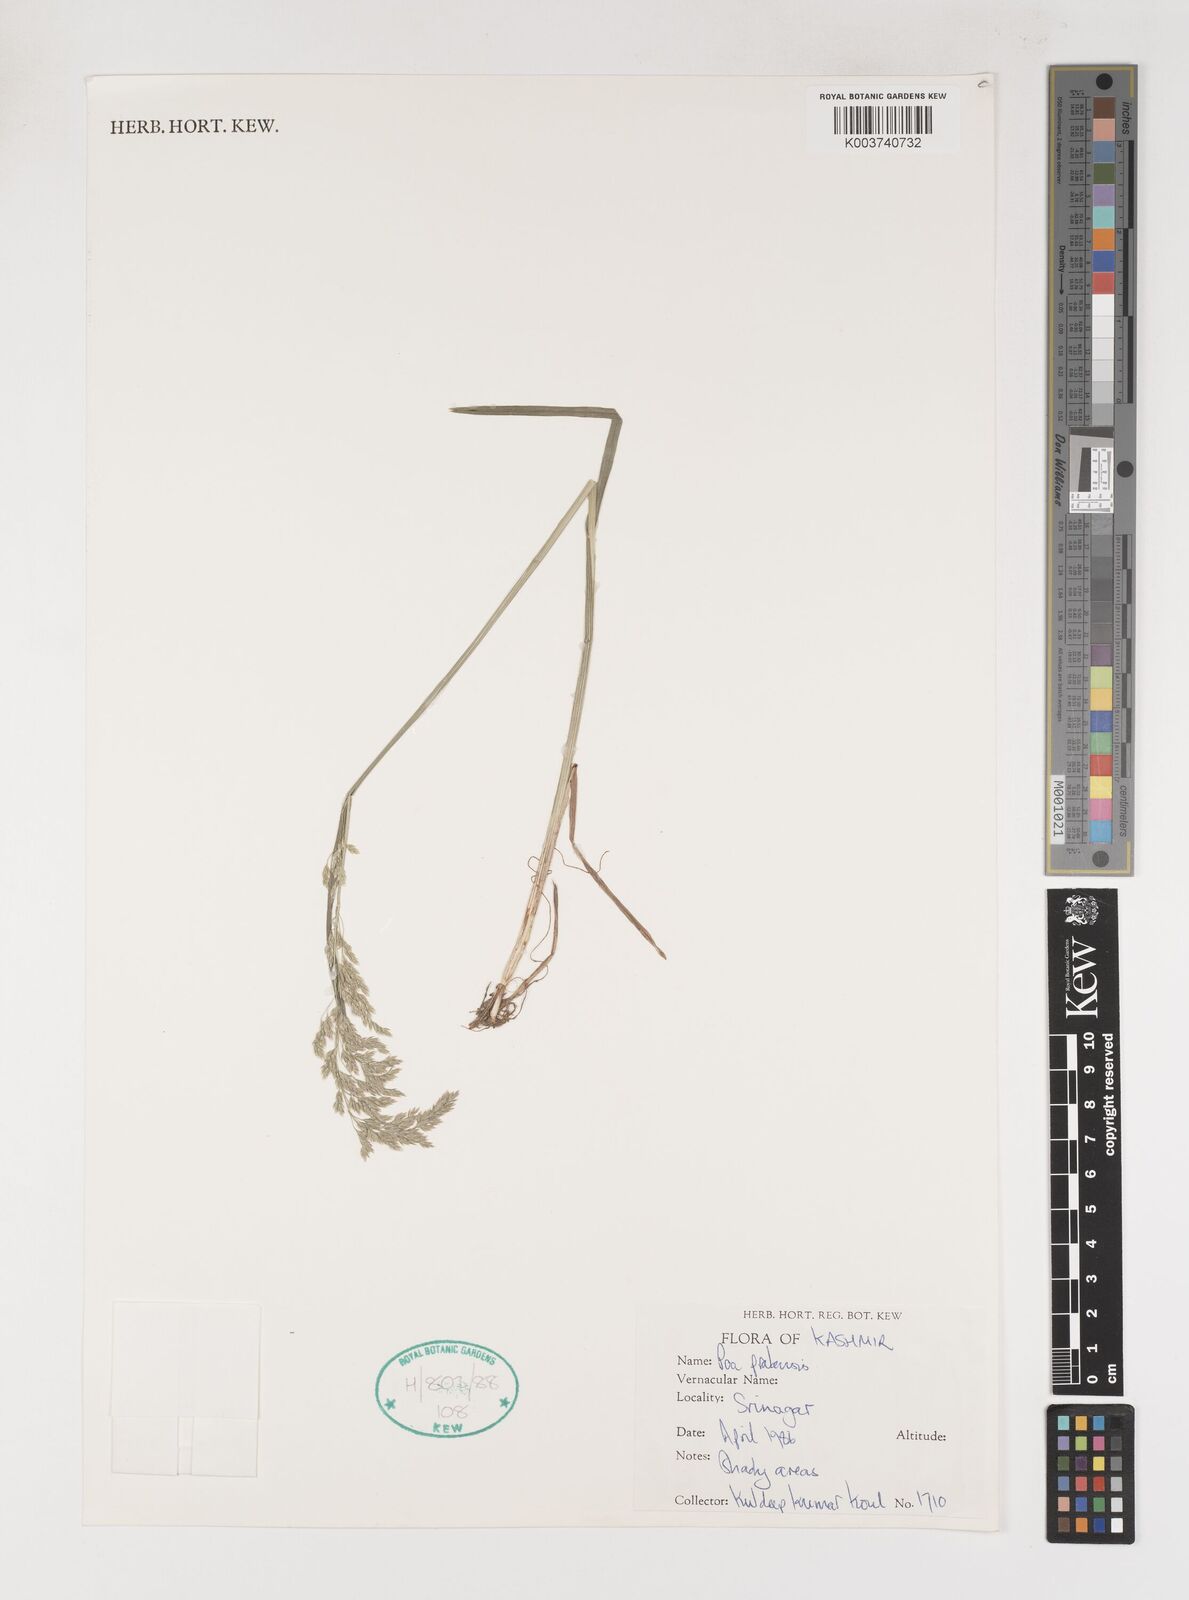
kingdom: Plantae
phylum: Tracheophyta
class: Liliopsida
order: Poales
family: Poaceae
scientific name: Poaceae
